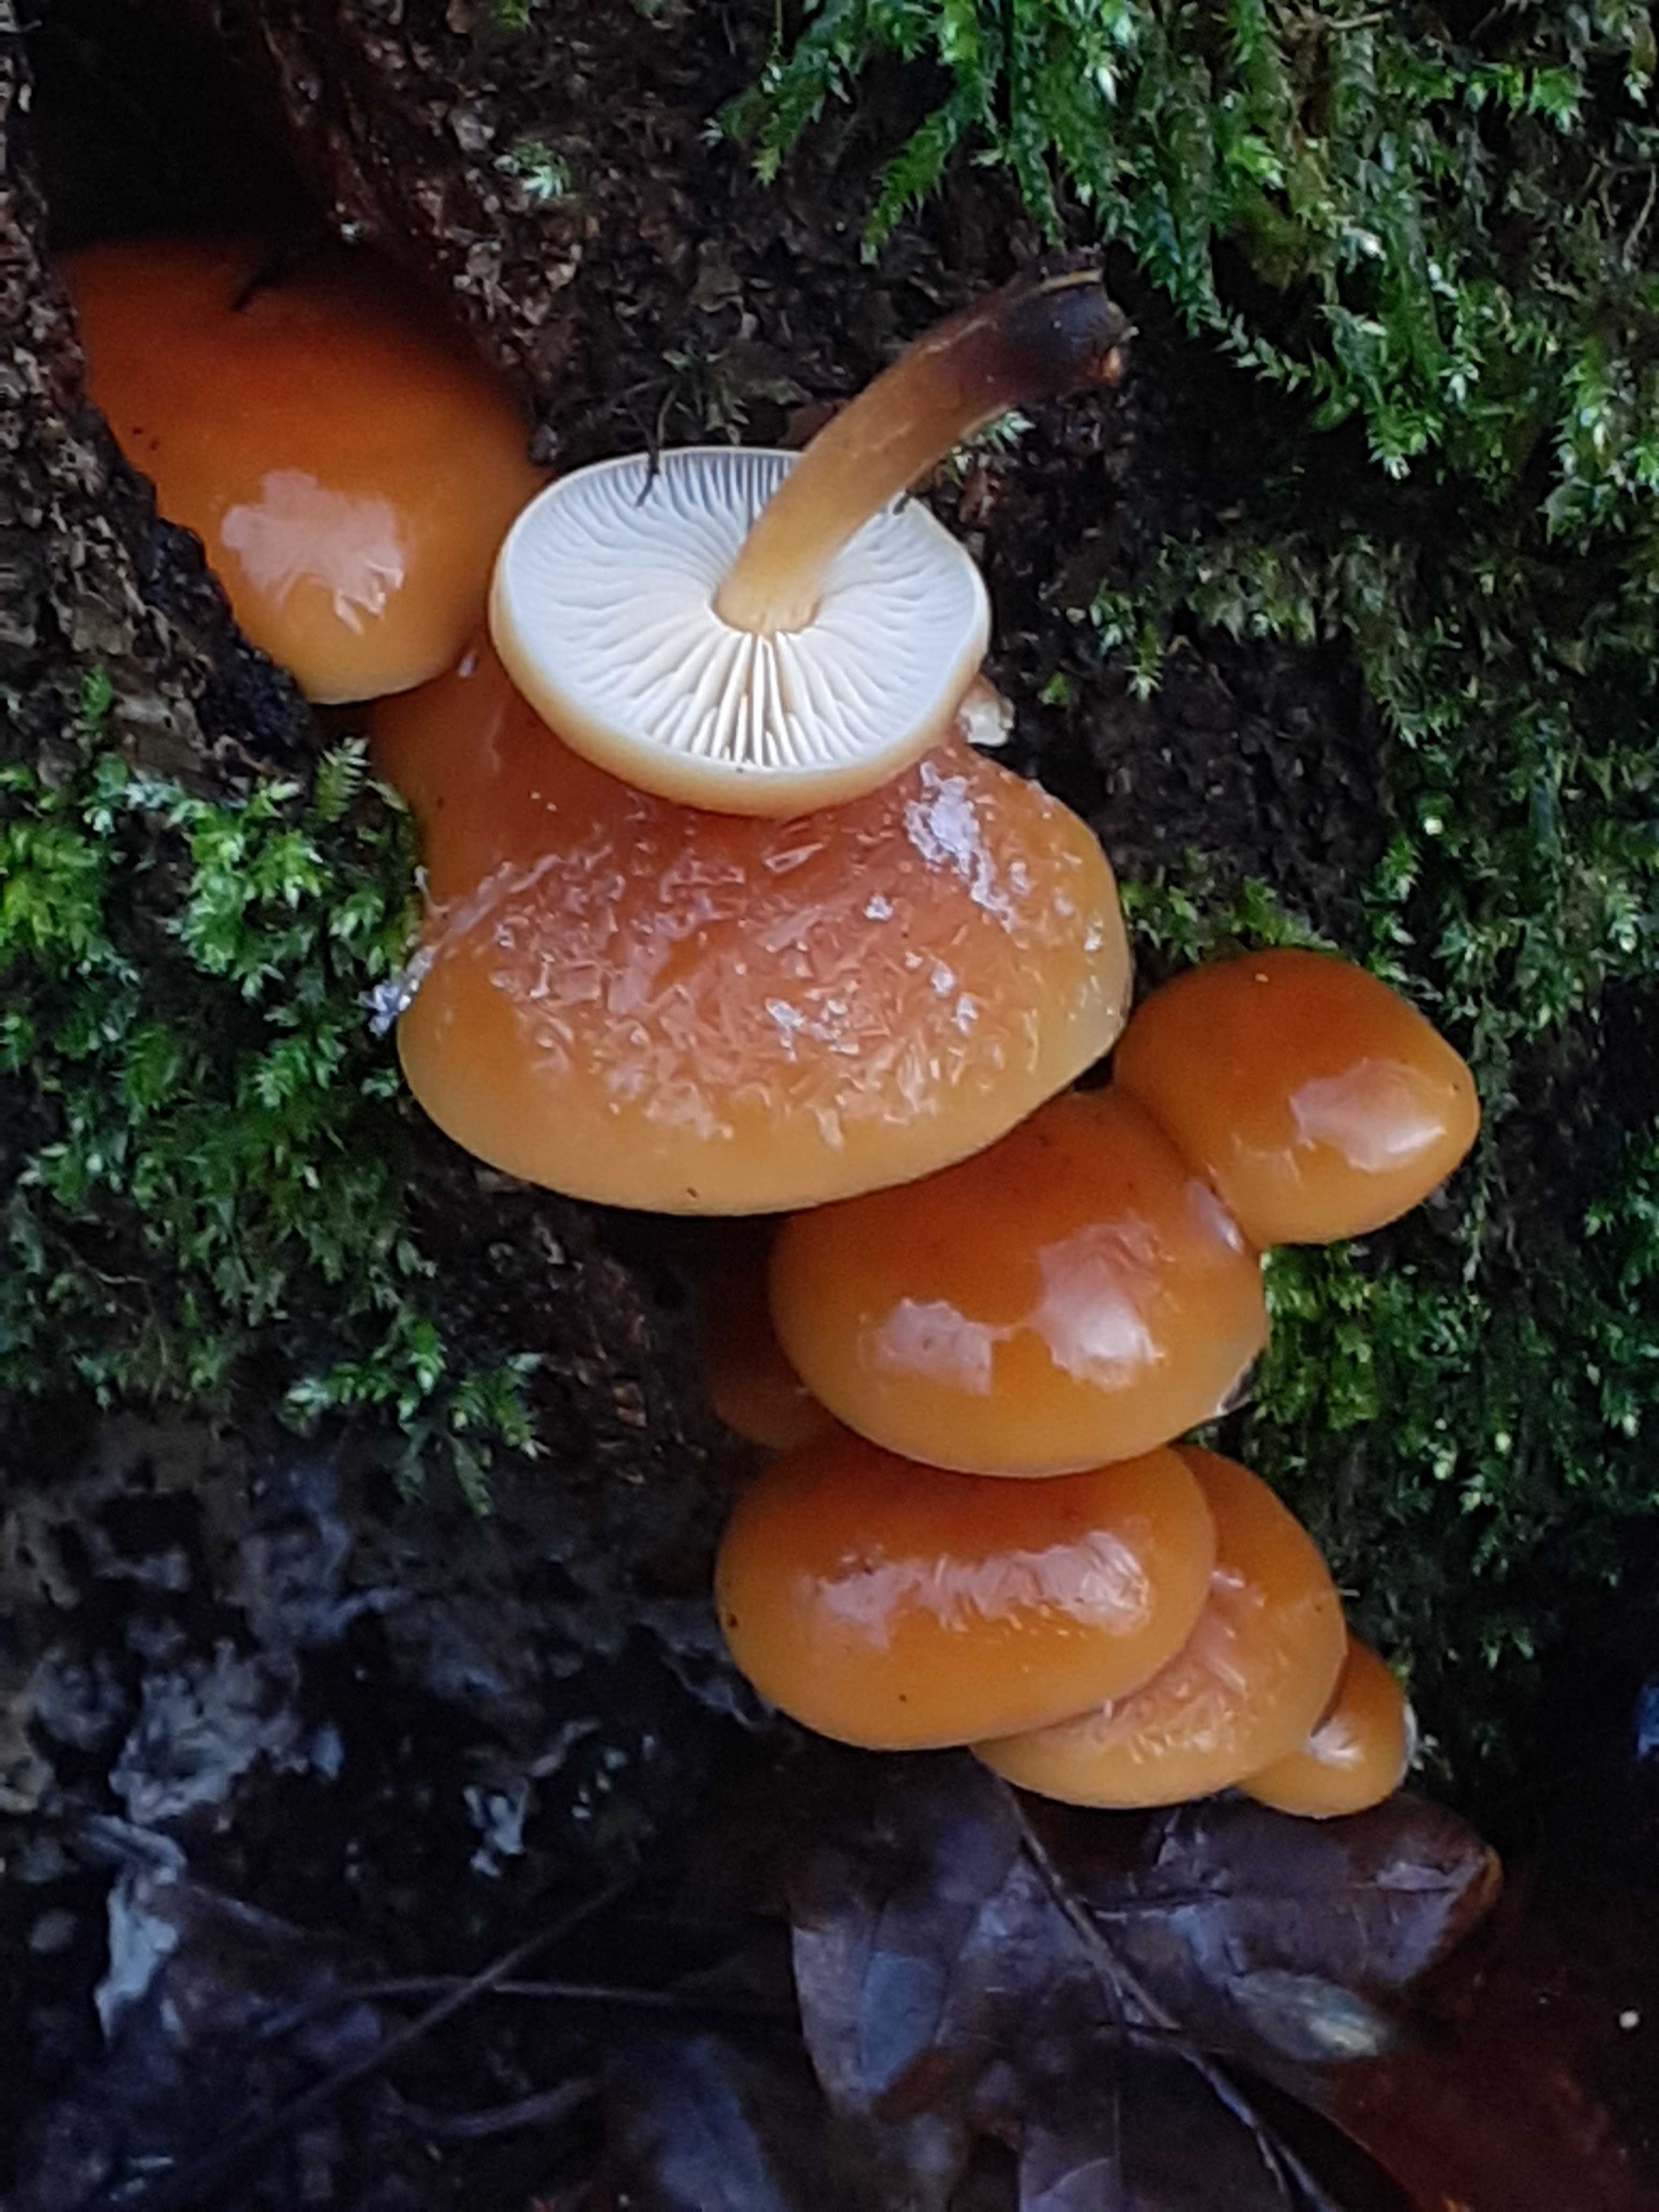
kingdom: Fungi
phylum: Basidiomycota
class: Agaricomycetes
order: Agaricales
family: Physalacriaceae
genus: Flammulina
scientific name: Flammulina velutipes
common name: gul fløjlsfod
